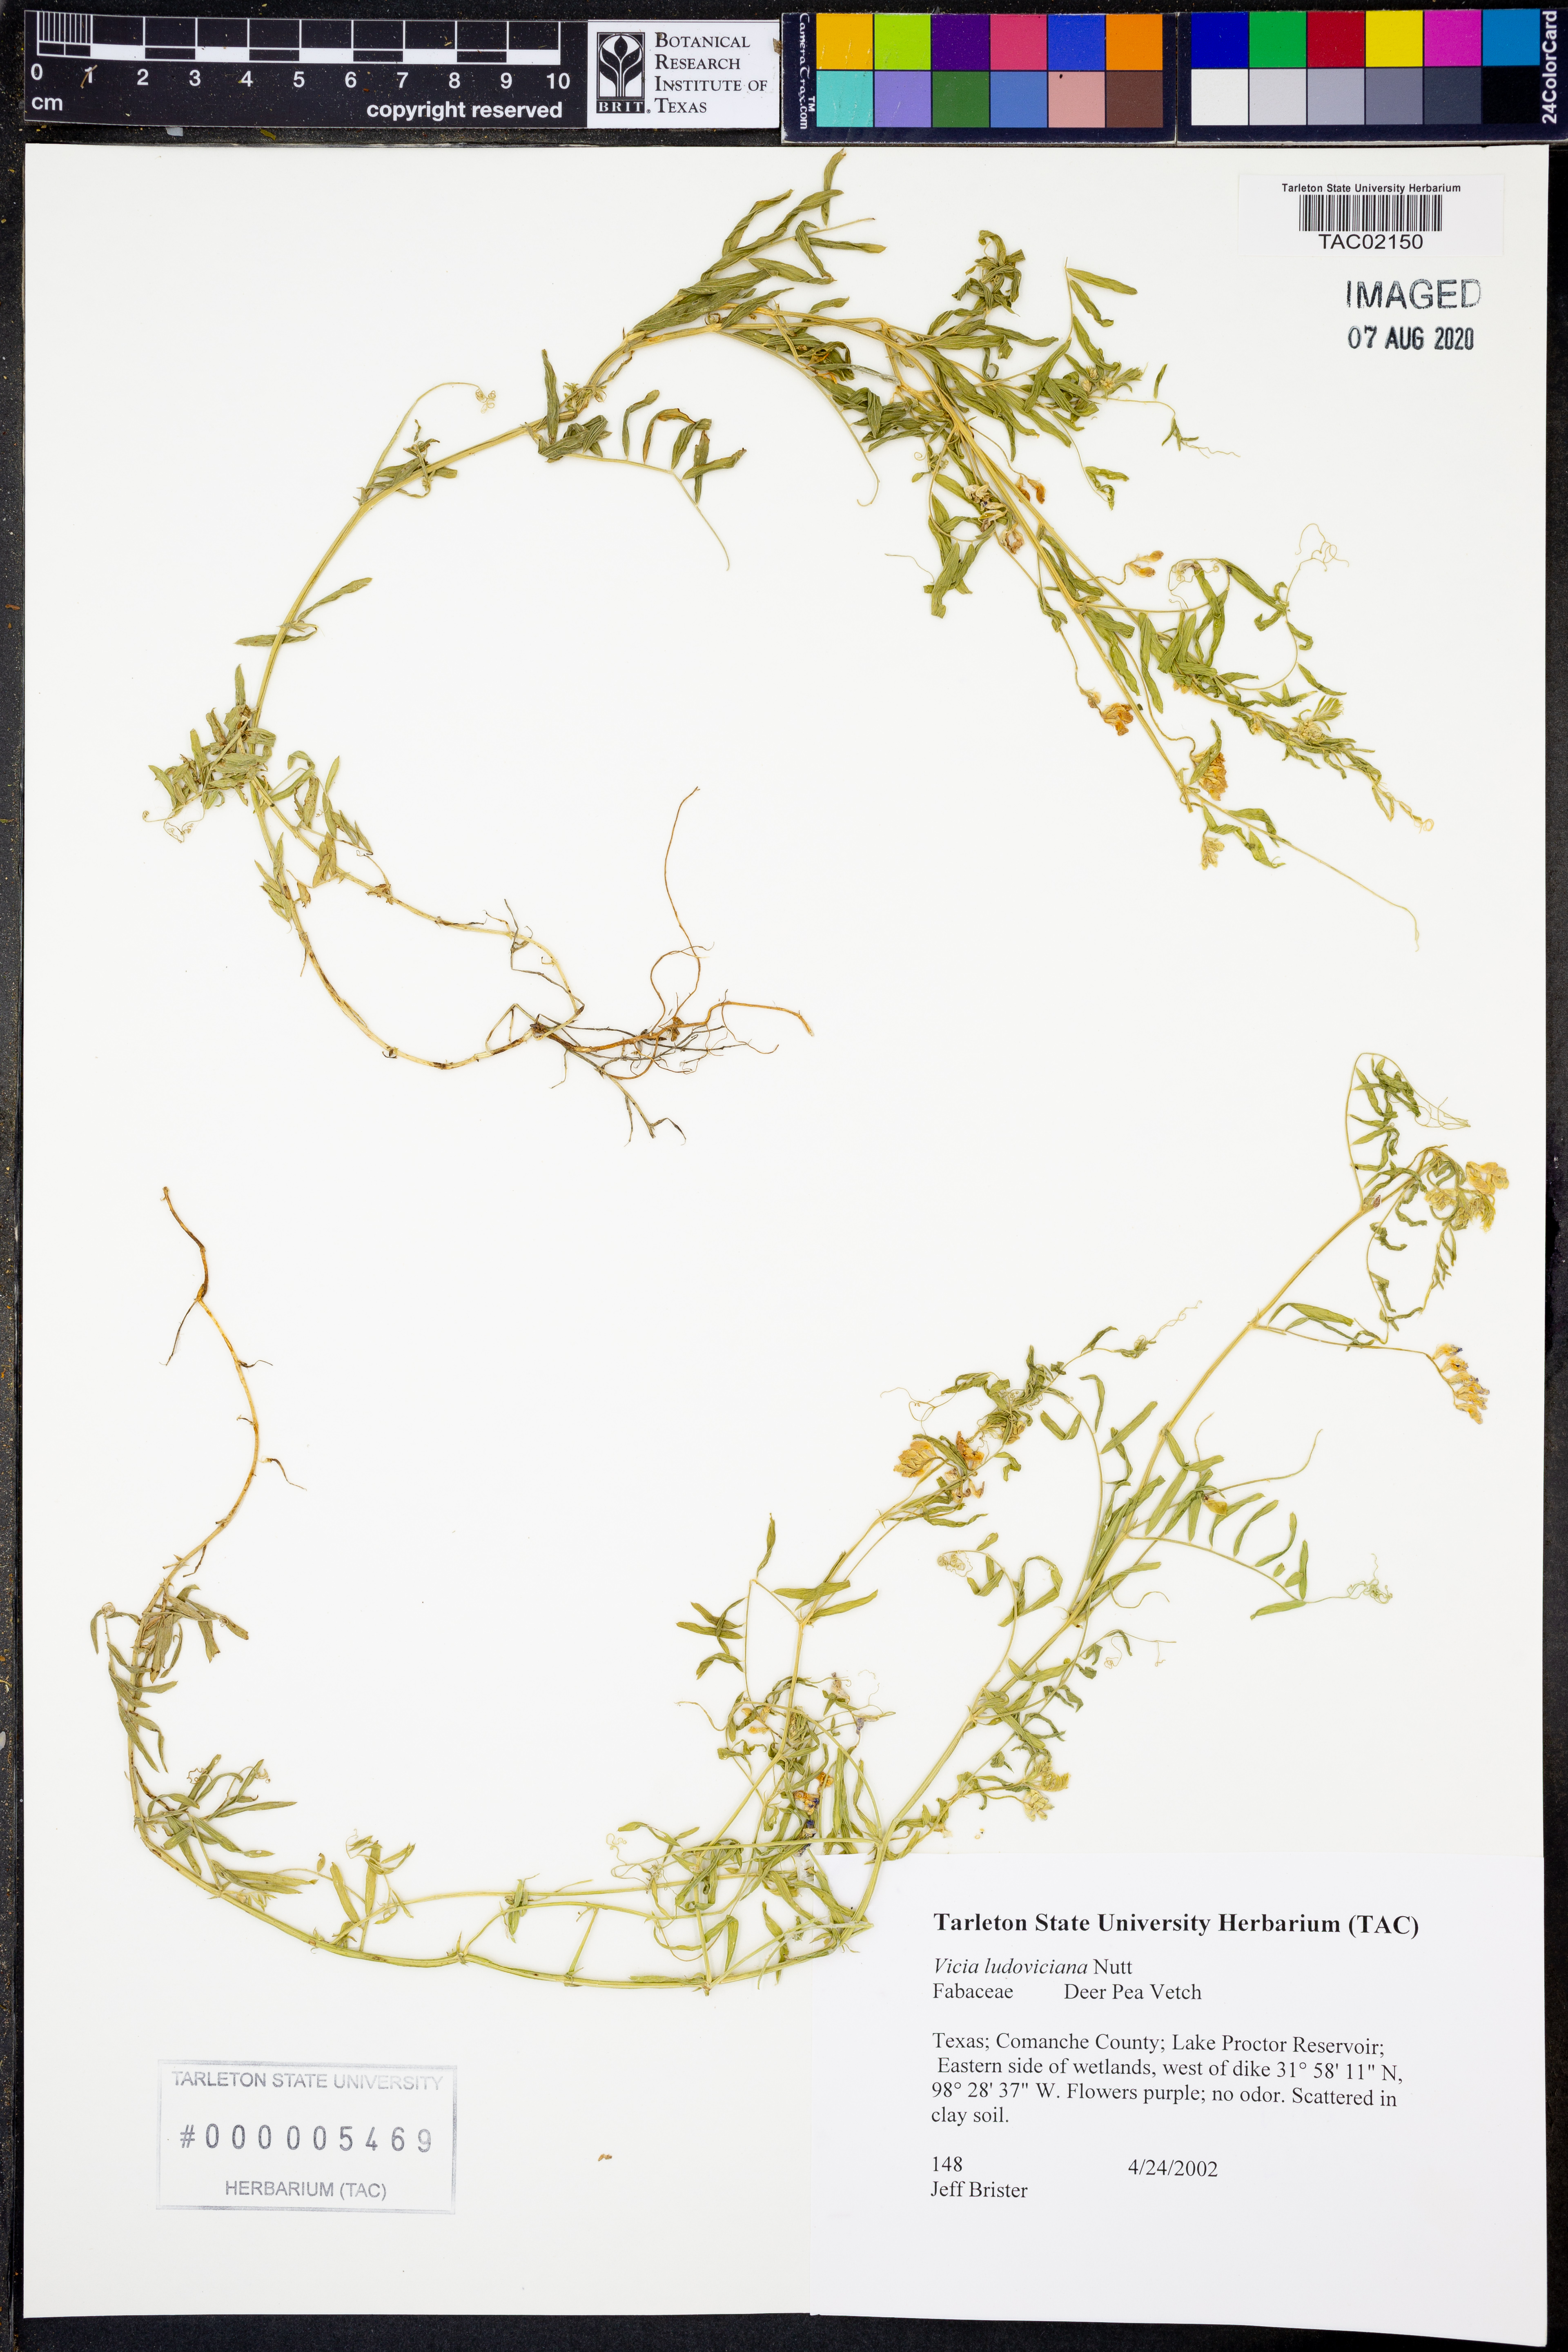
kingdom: Plantae
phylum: Tracheophyta
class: Magnoliopsida
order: Fabales
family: Fabaceae
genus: Vicia
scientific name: Vicia ludoviciana
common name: Louisiana vetch
